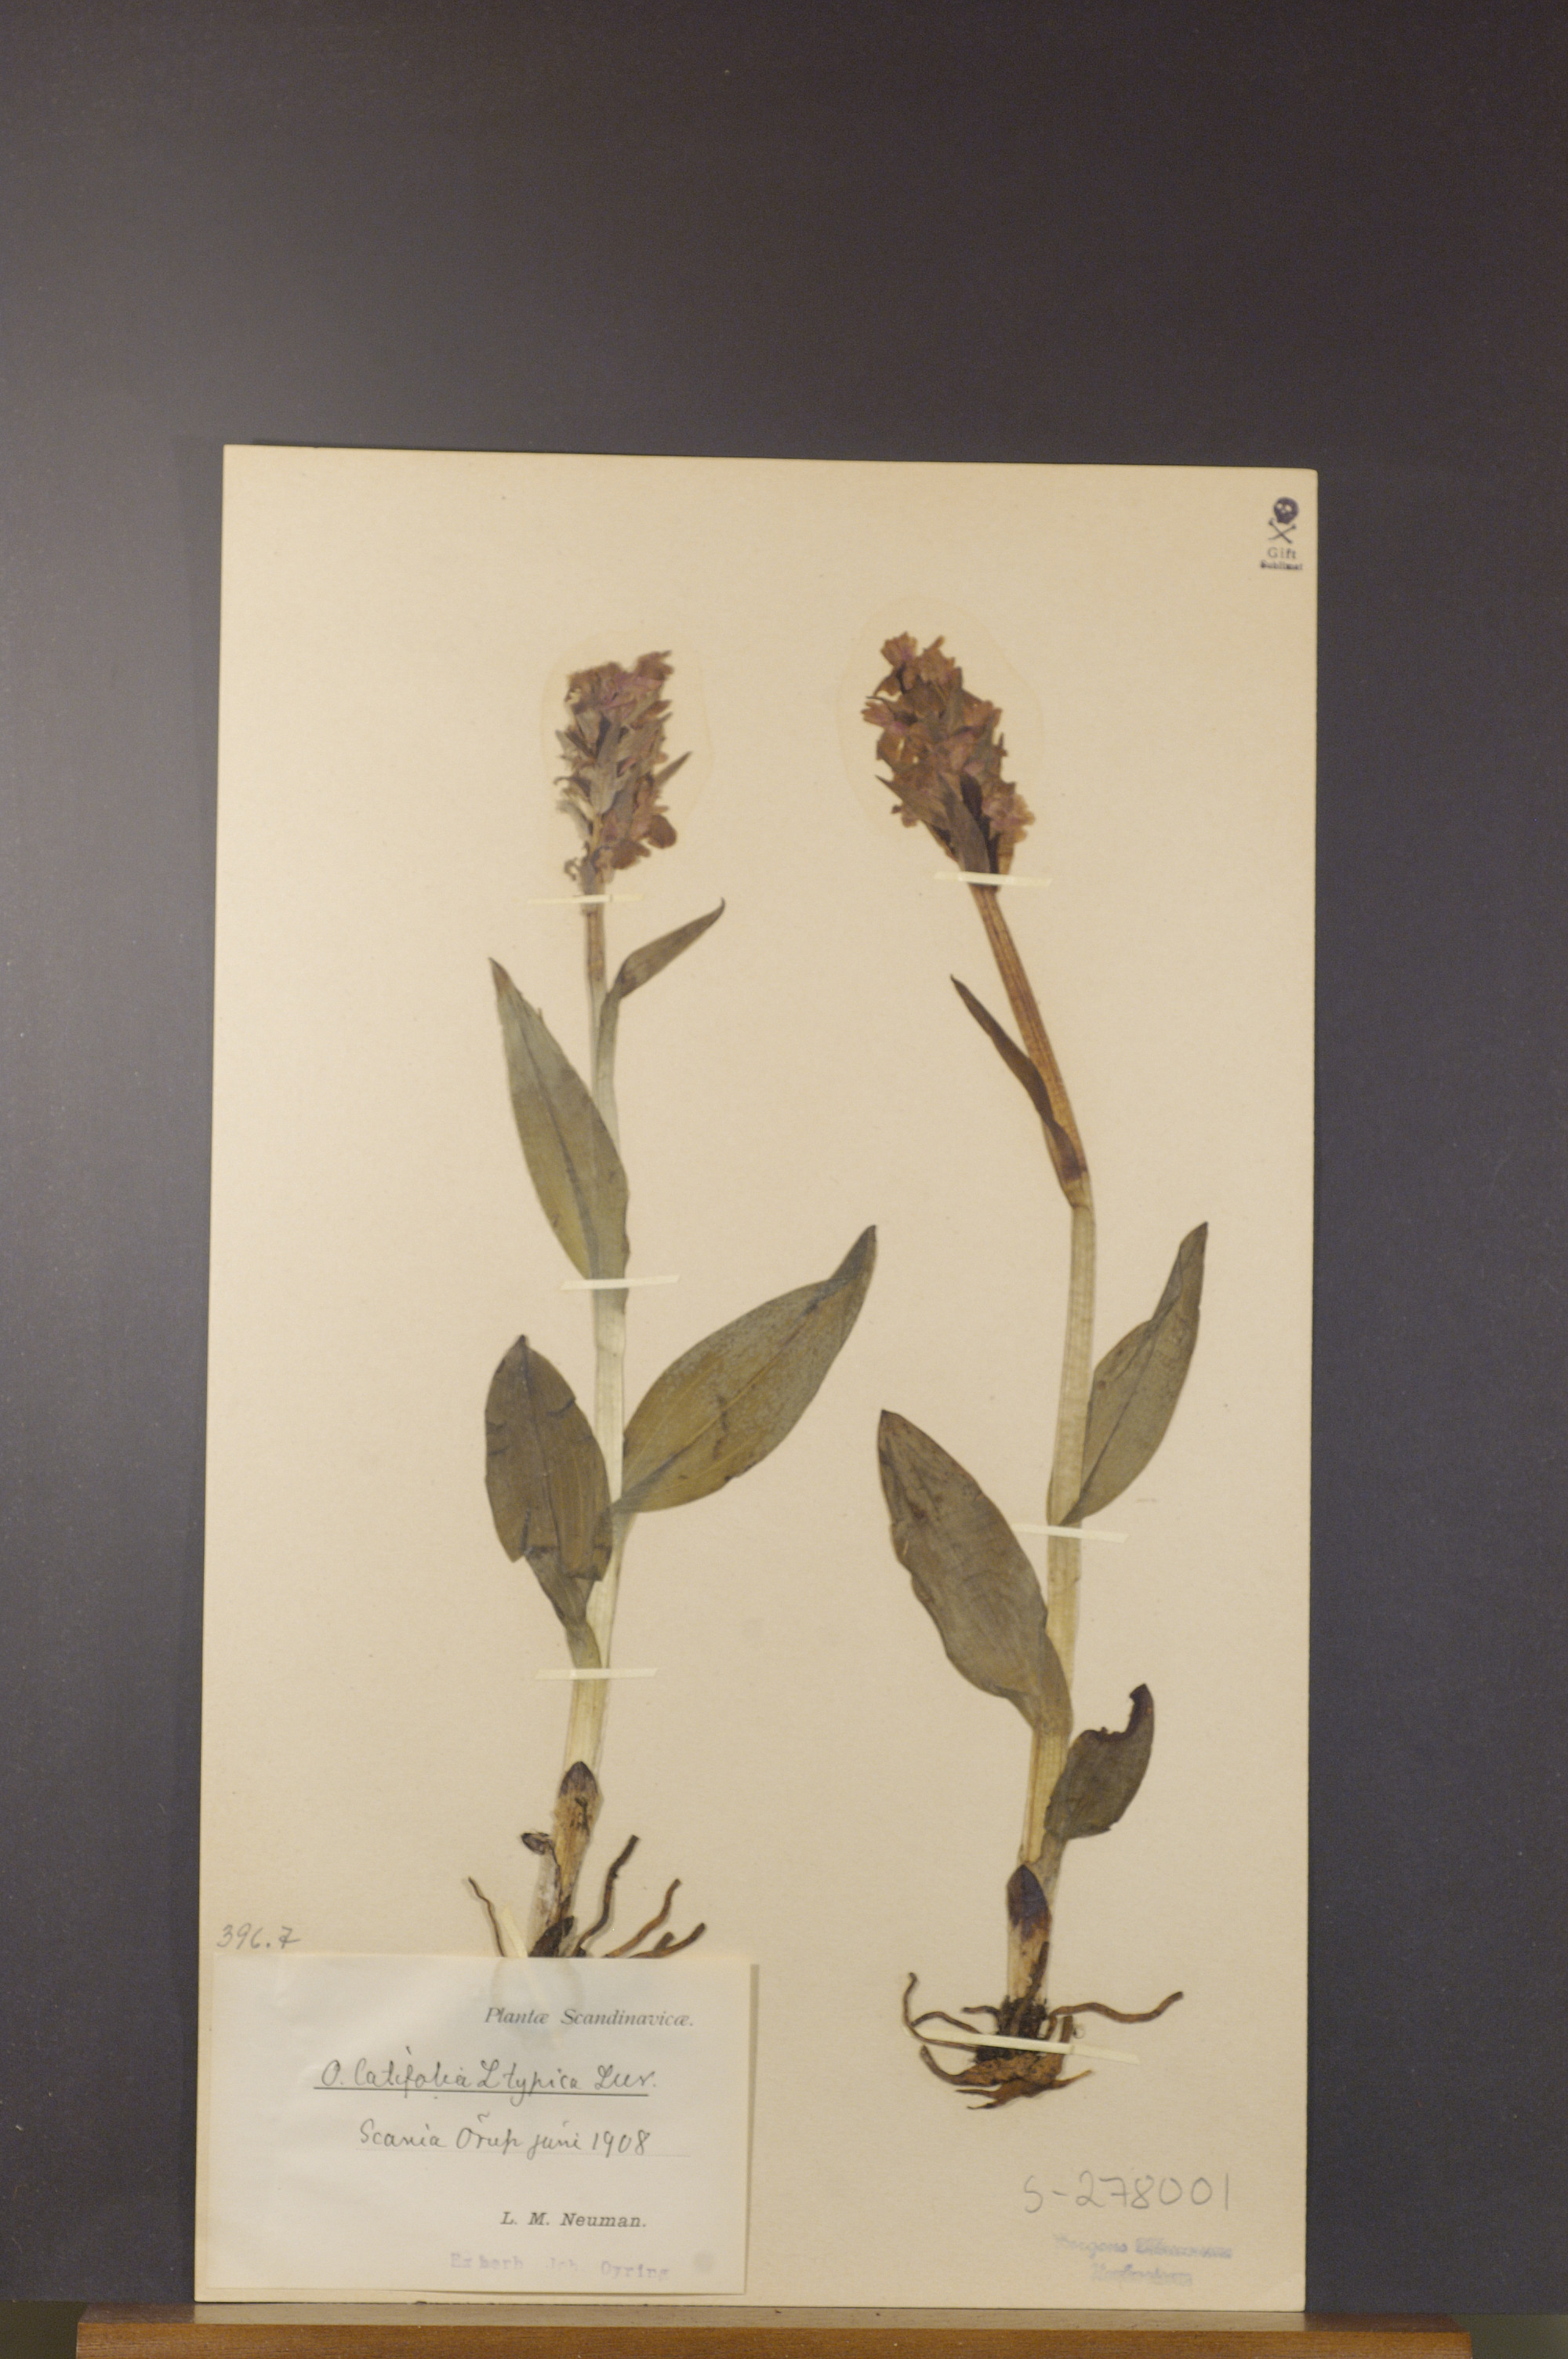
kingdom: Plantae
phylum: Tracheophyta
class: Liliopsida
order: Asparagales
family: Orchidaceae
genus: Dactylorhiza
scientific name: Dactylorhiza incarnata
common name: Early marsh-orchid
